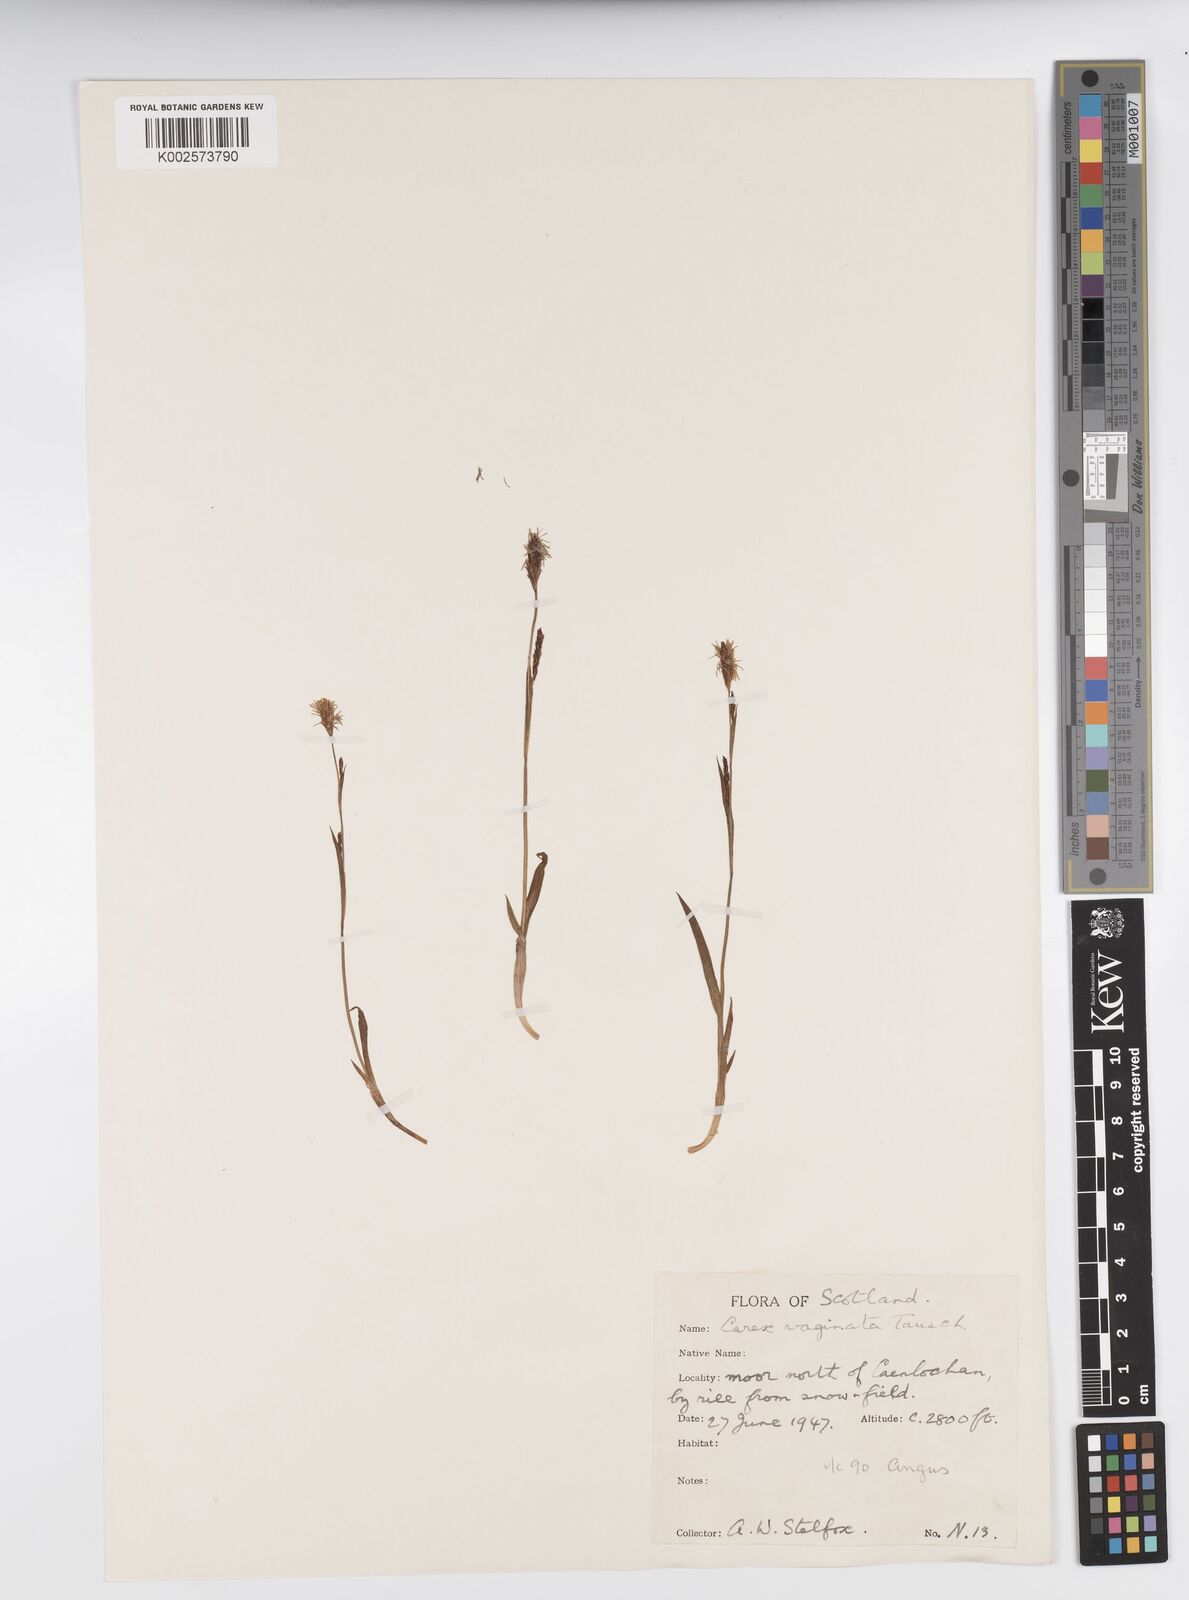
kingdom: Plantae
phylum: Tracheophyta
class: Liliopsida
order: Poales
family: Cyperaceae
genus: Carex
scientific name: Carex vaginata
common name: Sheathed sedge
